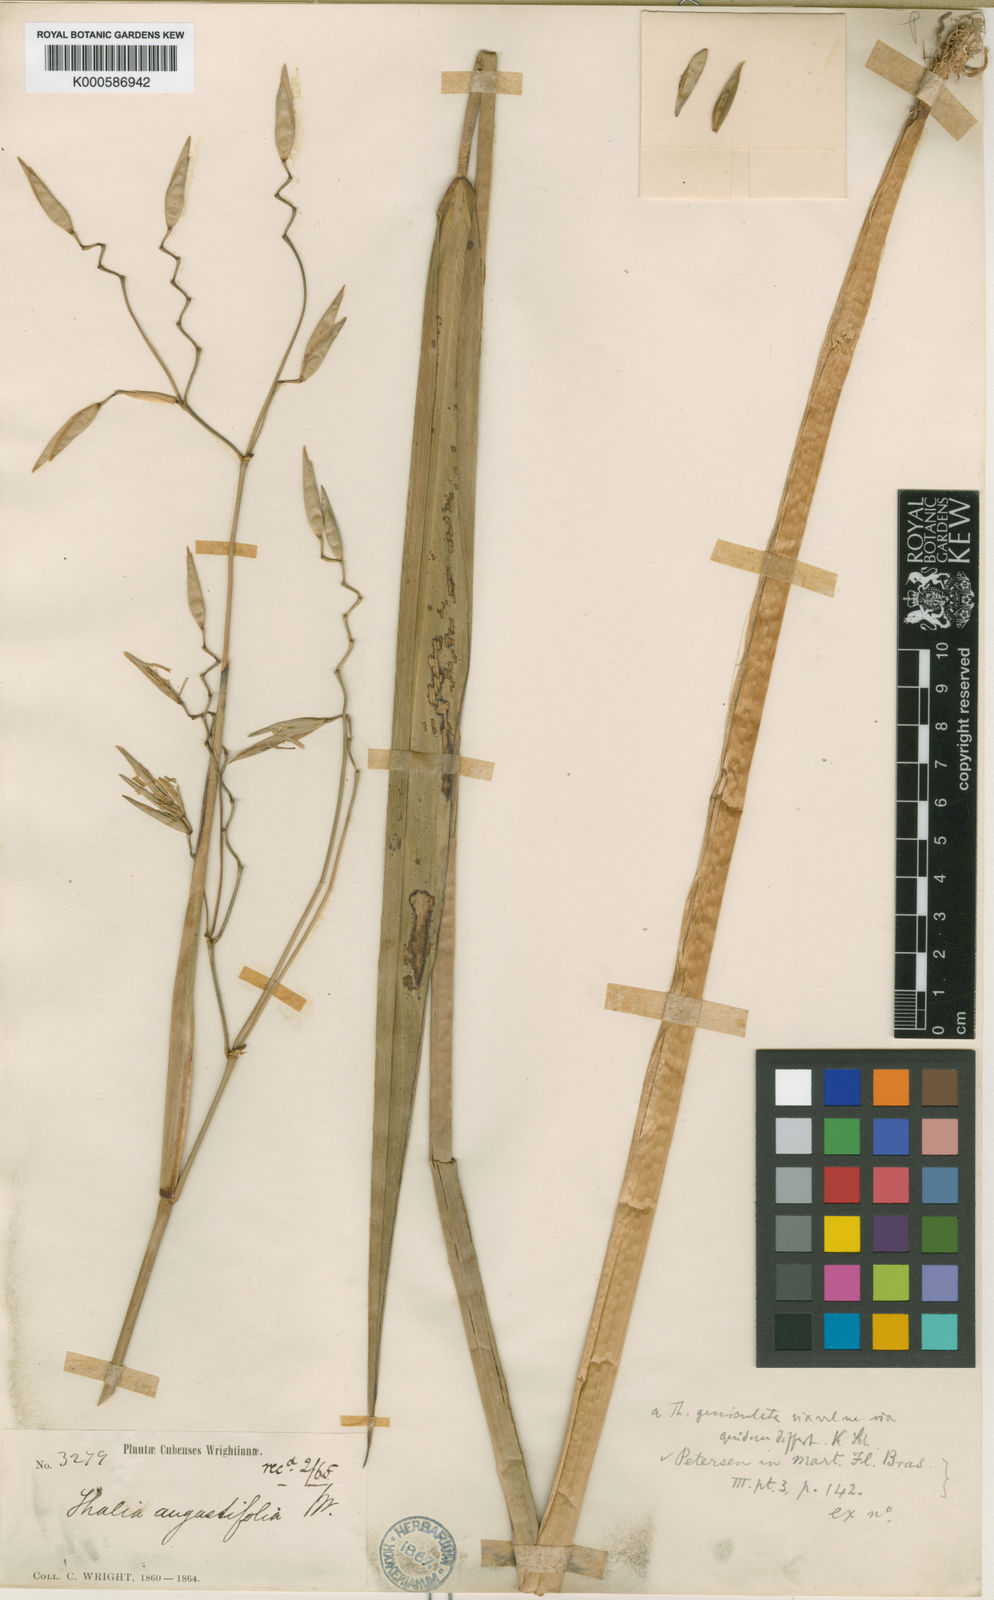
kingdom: Plantae
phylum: Tracheophyta
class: Liliopsida
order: Zingiberales
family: Marantaceae
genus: Thalia
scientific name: Thalia geniculata
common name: Arrowroot
